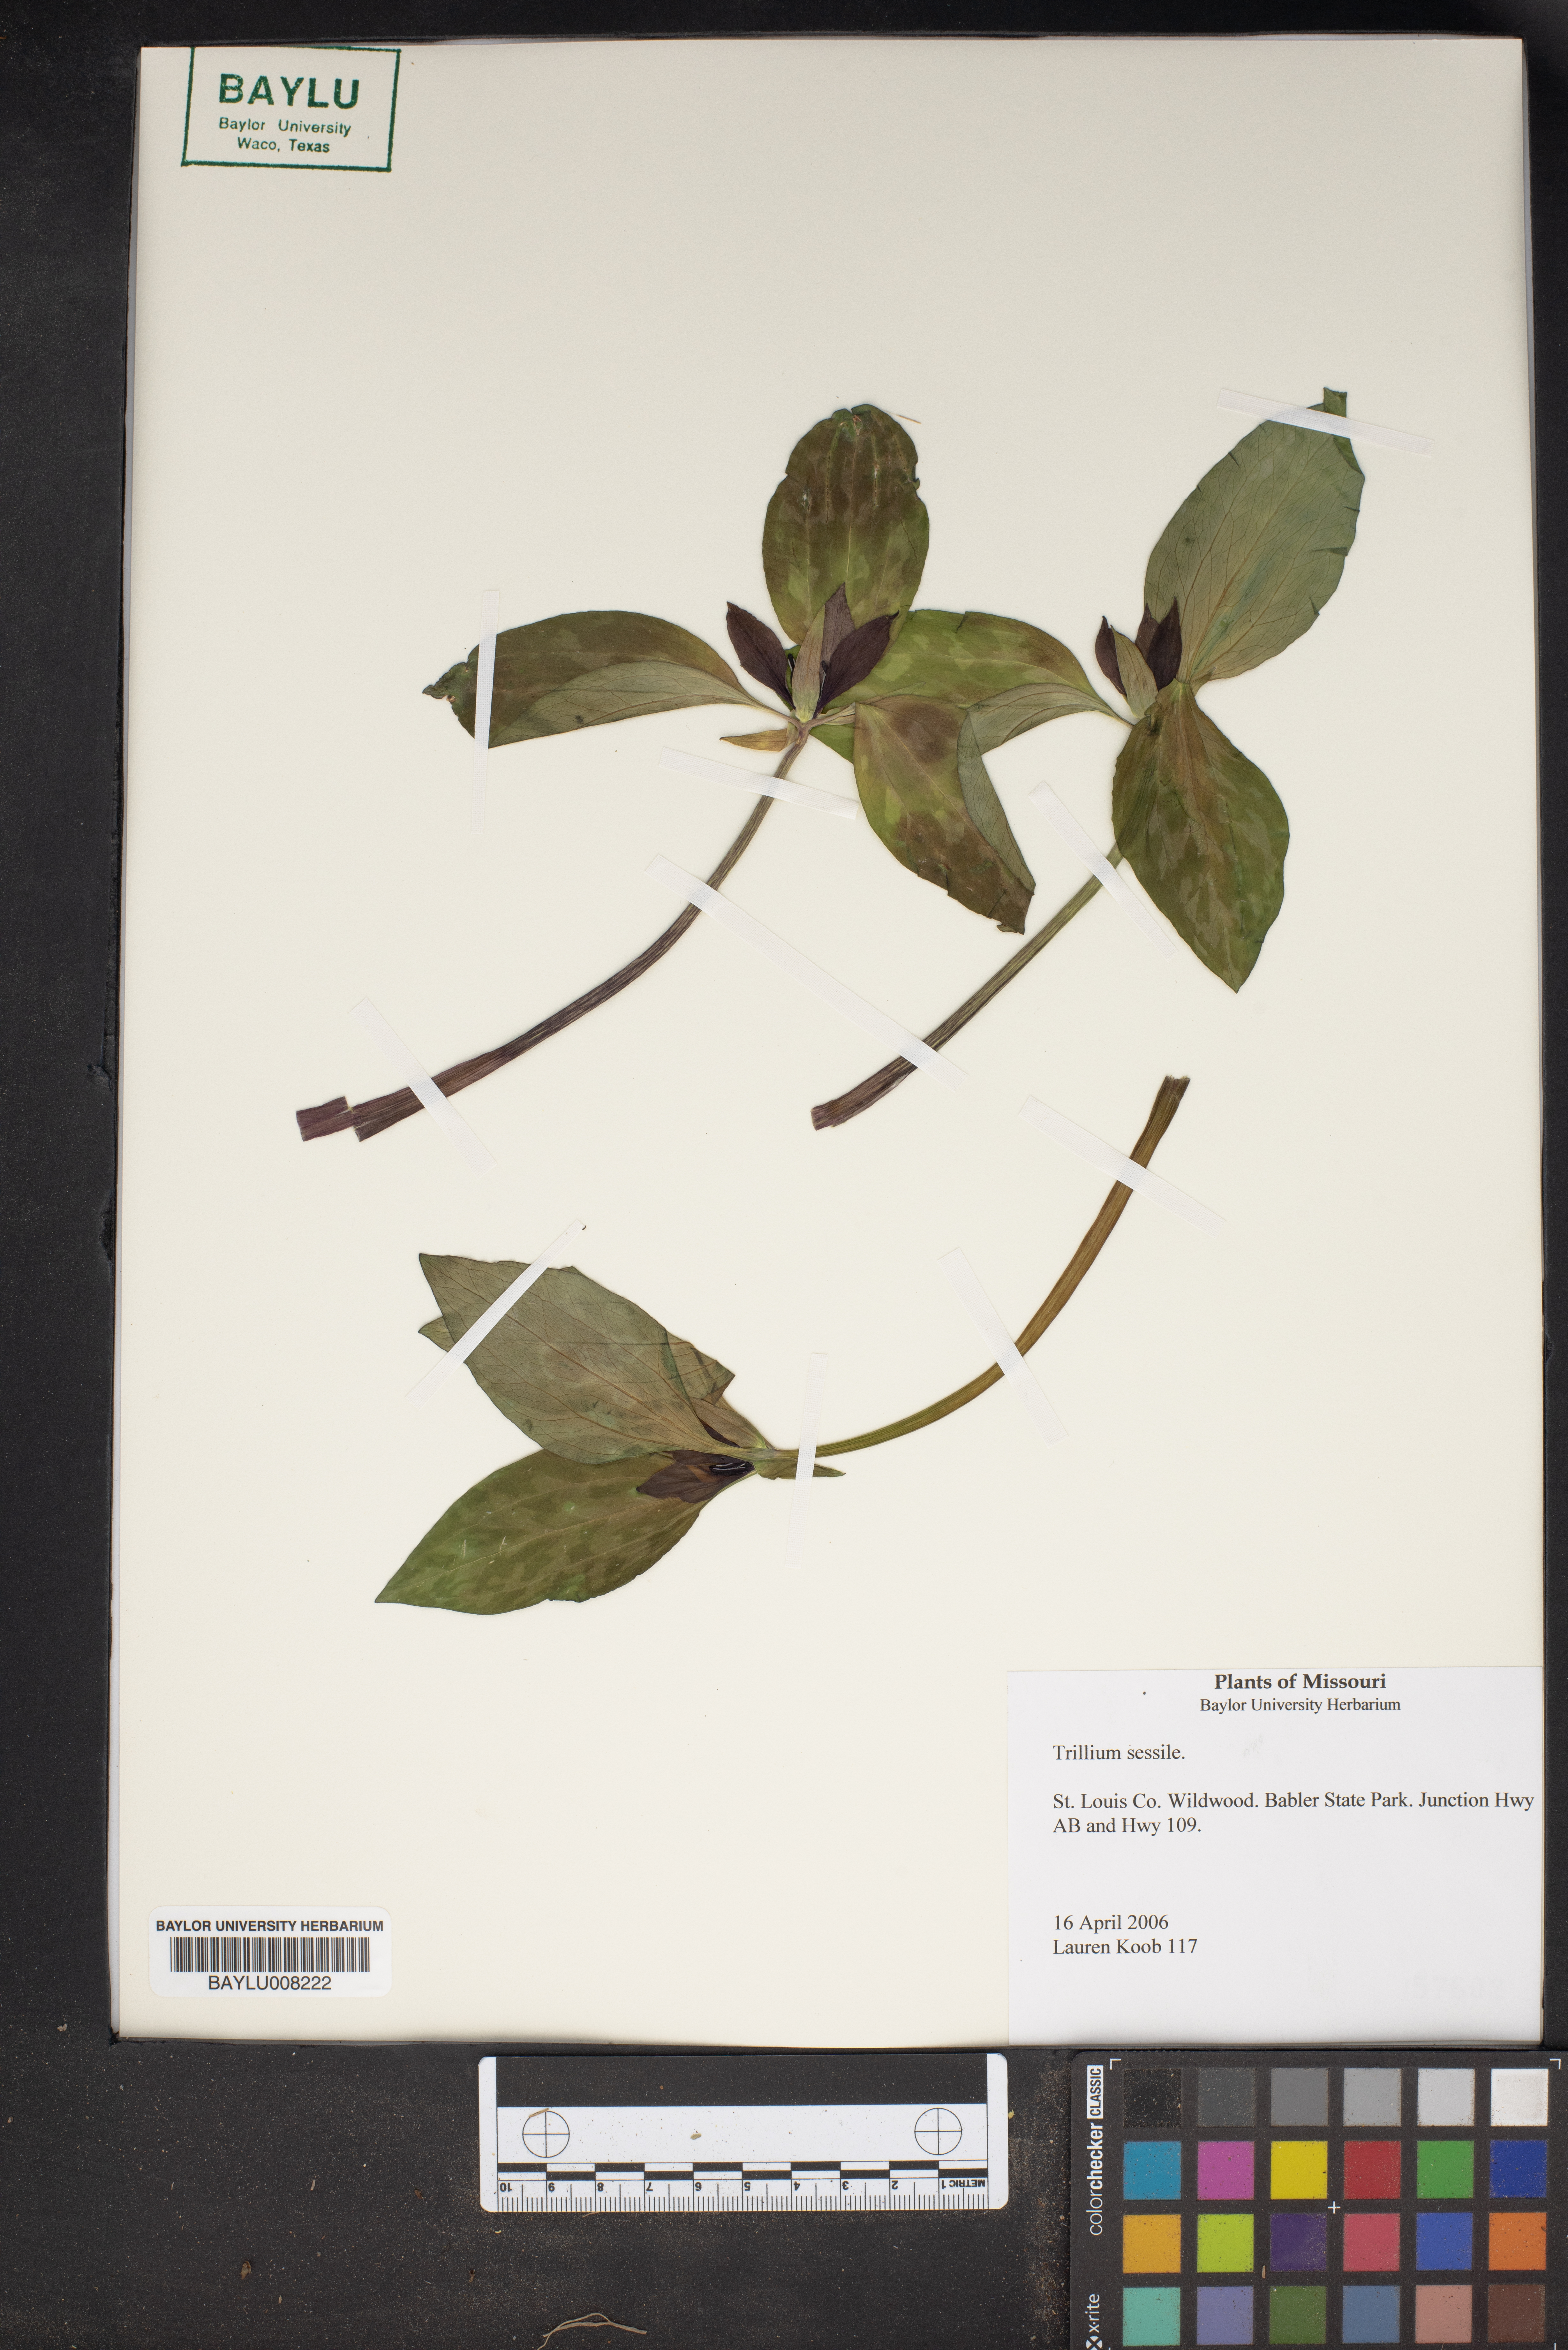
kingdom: Plantae
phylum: Tracheophyta
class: Liliopsida
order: Liliales
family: Melanthiaceae
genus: Trillium
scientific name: Trillium sessile
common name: Sessile trillium
